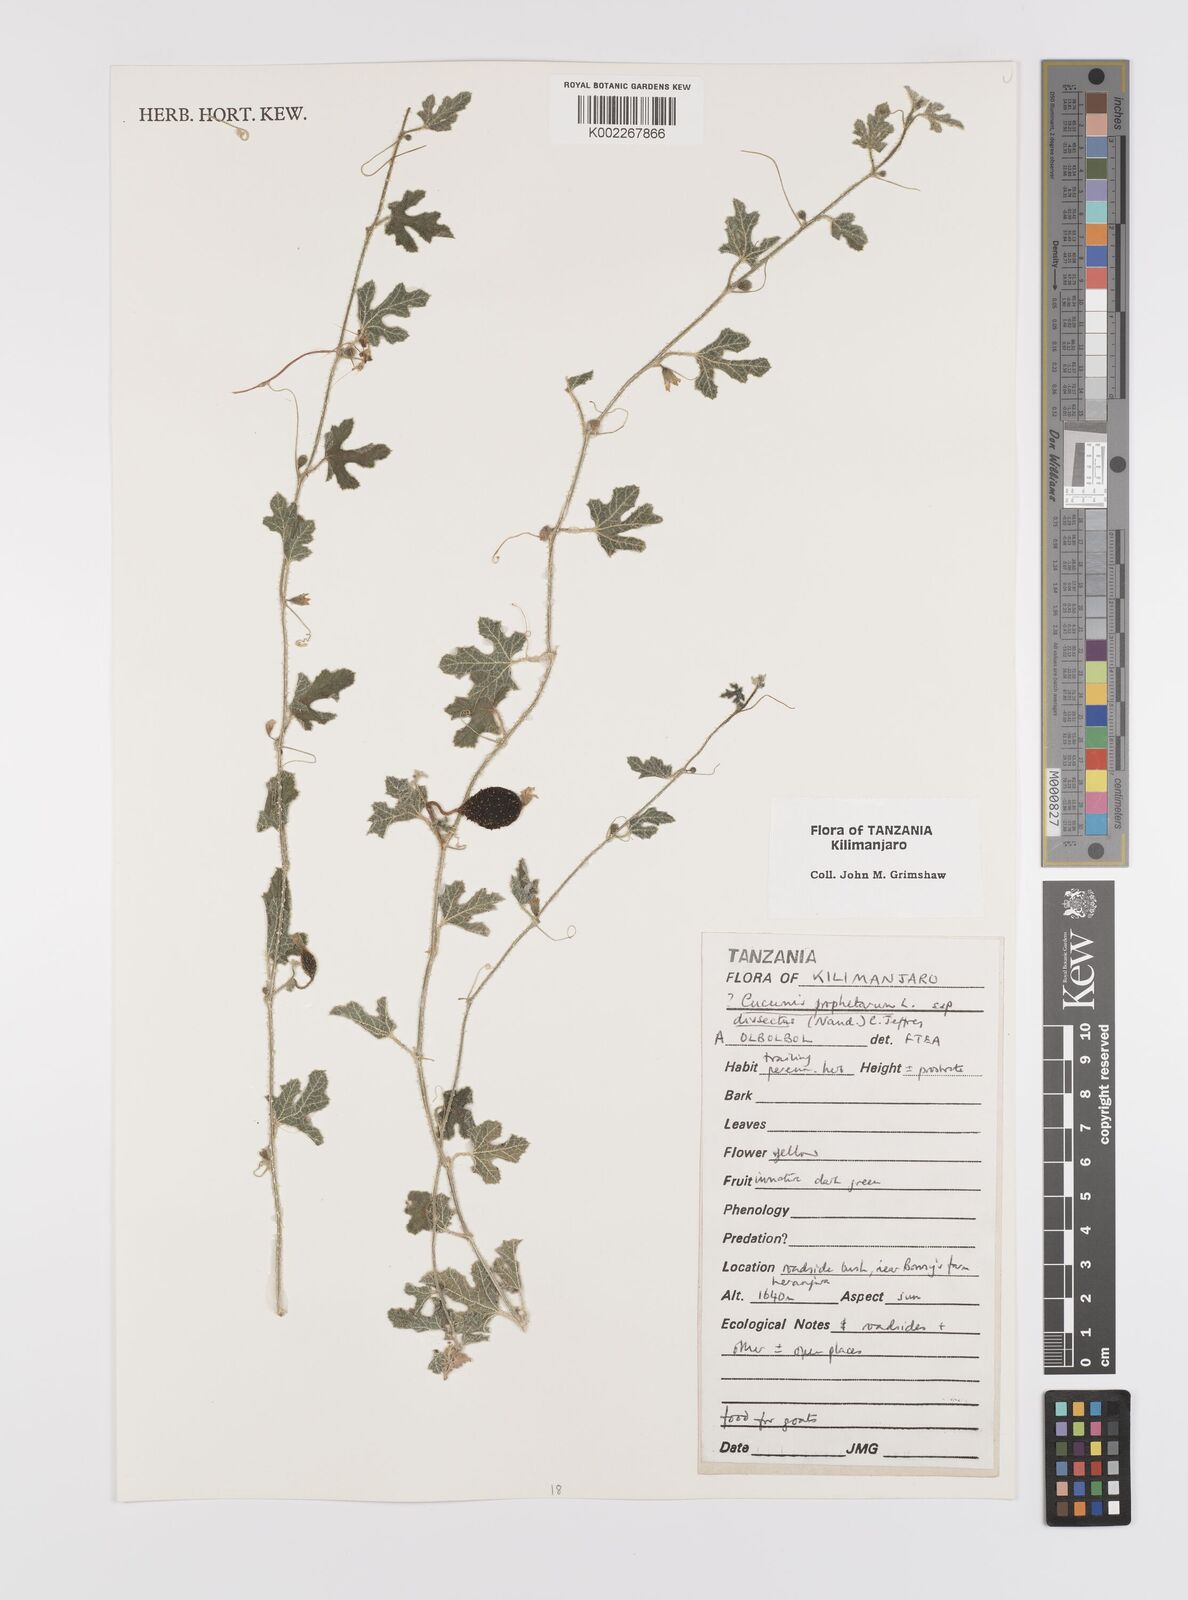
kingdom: Plantae
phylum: Tracheophyta
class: Magnoliopsida
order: Cucurbitales
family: Cucurbitaceae
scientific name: Cucurbitaceae
